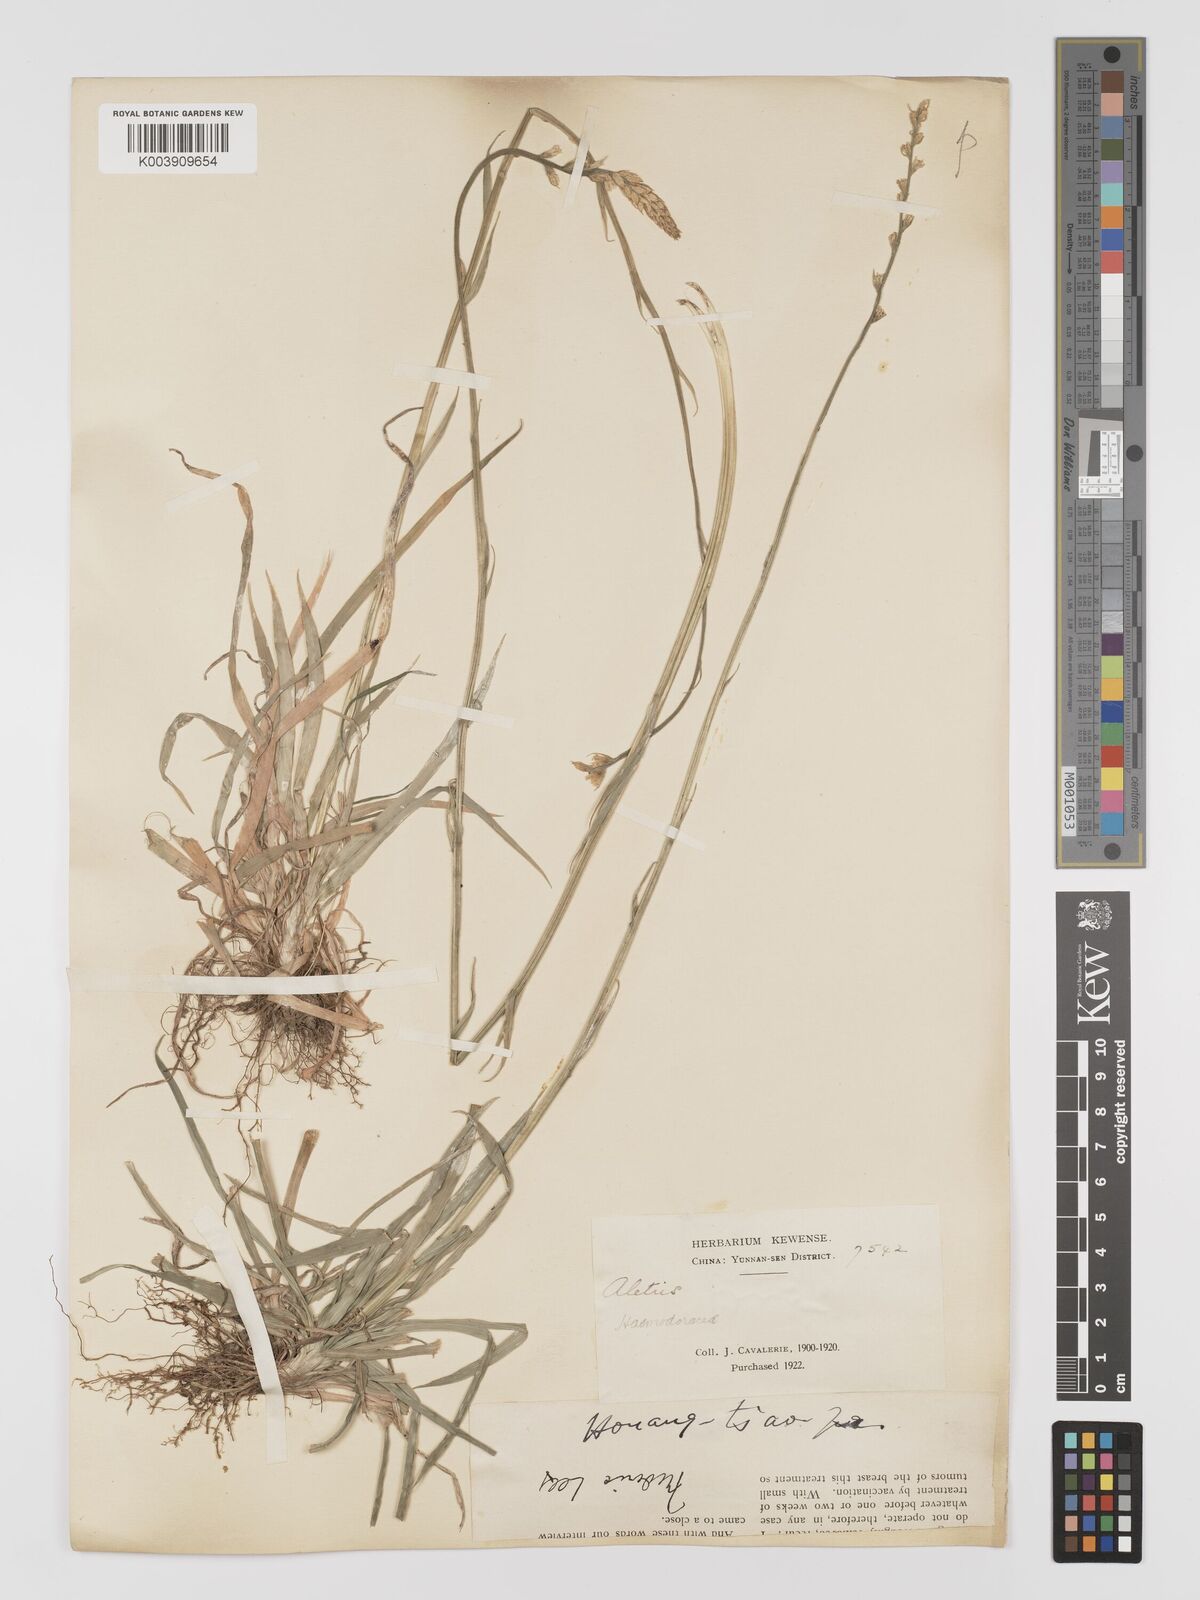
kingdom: Plantae
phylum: Tracheophyta
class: Liliopsida
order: Dioscoreales
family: Nartheciaceae
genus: Aletris
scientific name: Aletris spicata
